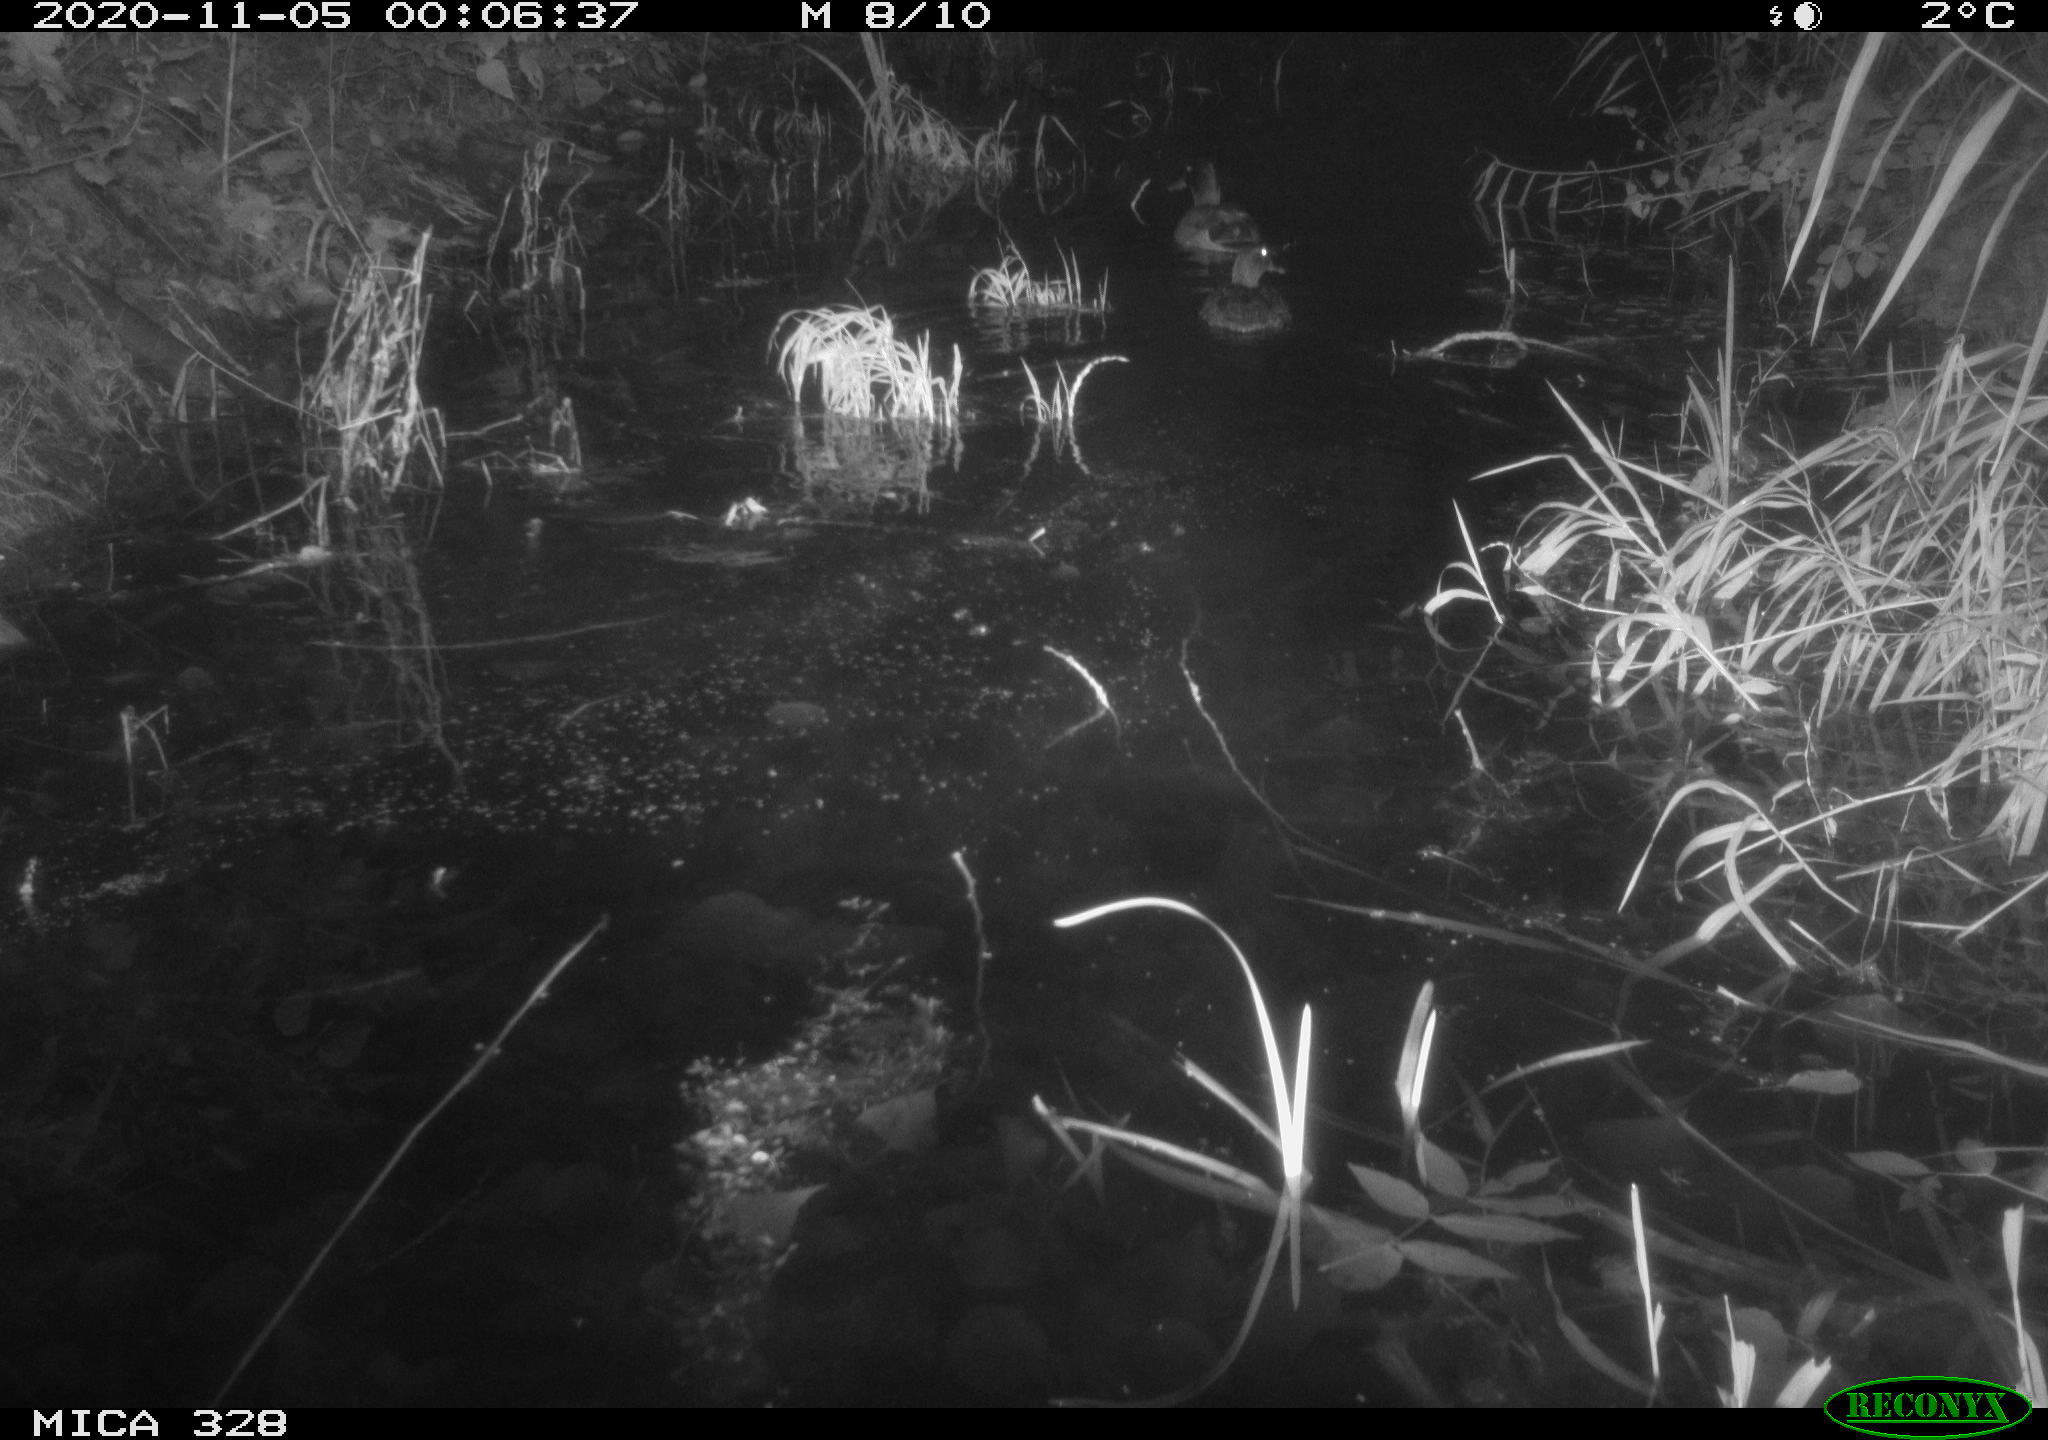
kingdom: Animalia
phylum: Chordata
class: Aves
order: Anseriformes
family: Anatidae
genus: Anas
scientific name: Anas platyrhynchos
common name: Mallard
